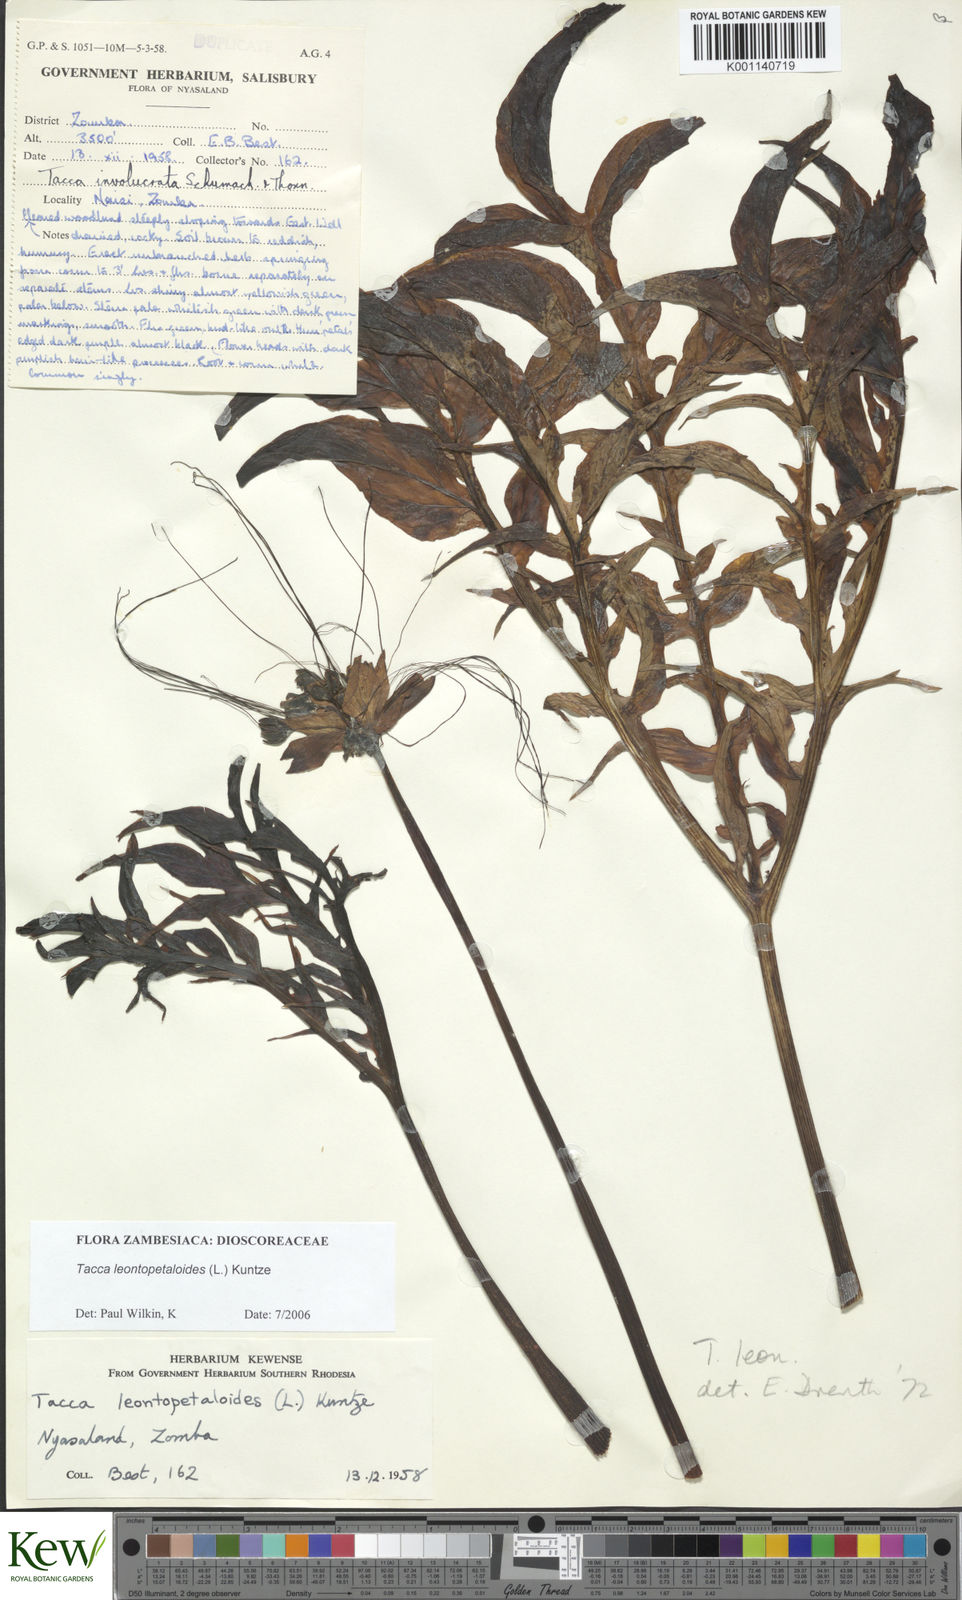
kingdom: Plantae
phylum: Tracheophyta
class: Liliopsida
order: Dioscoreales
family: Dioscoreaceae
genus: Tacca
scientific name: Tacca leontopetaloides
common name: Arrowroot
